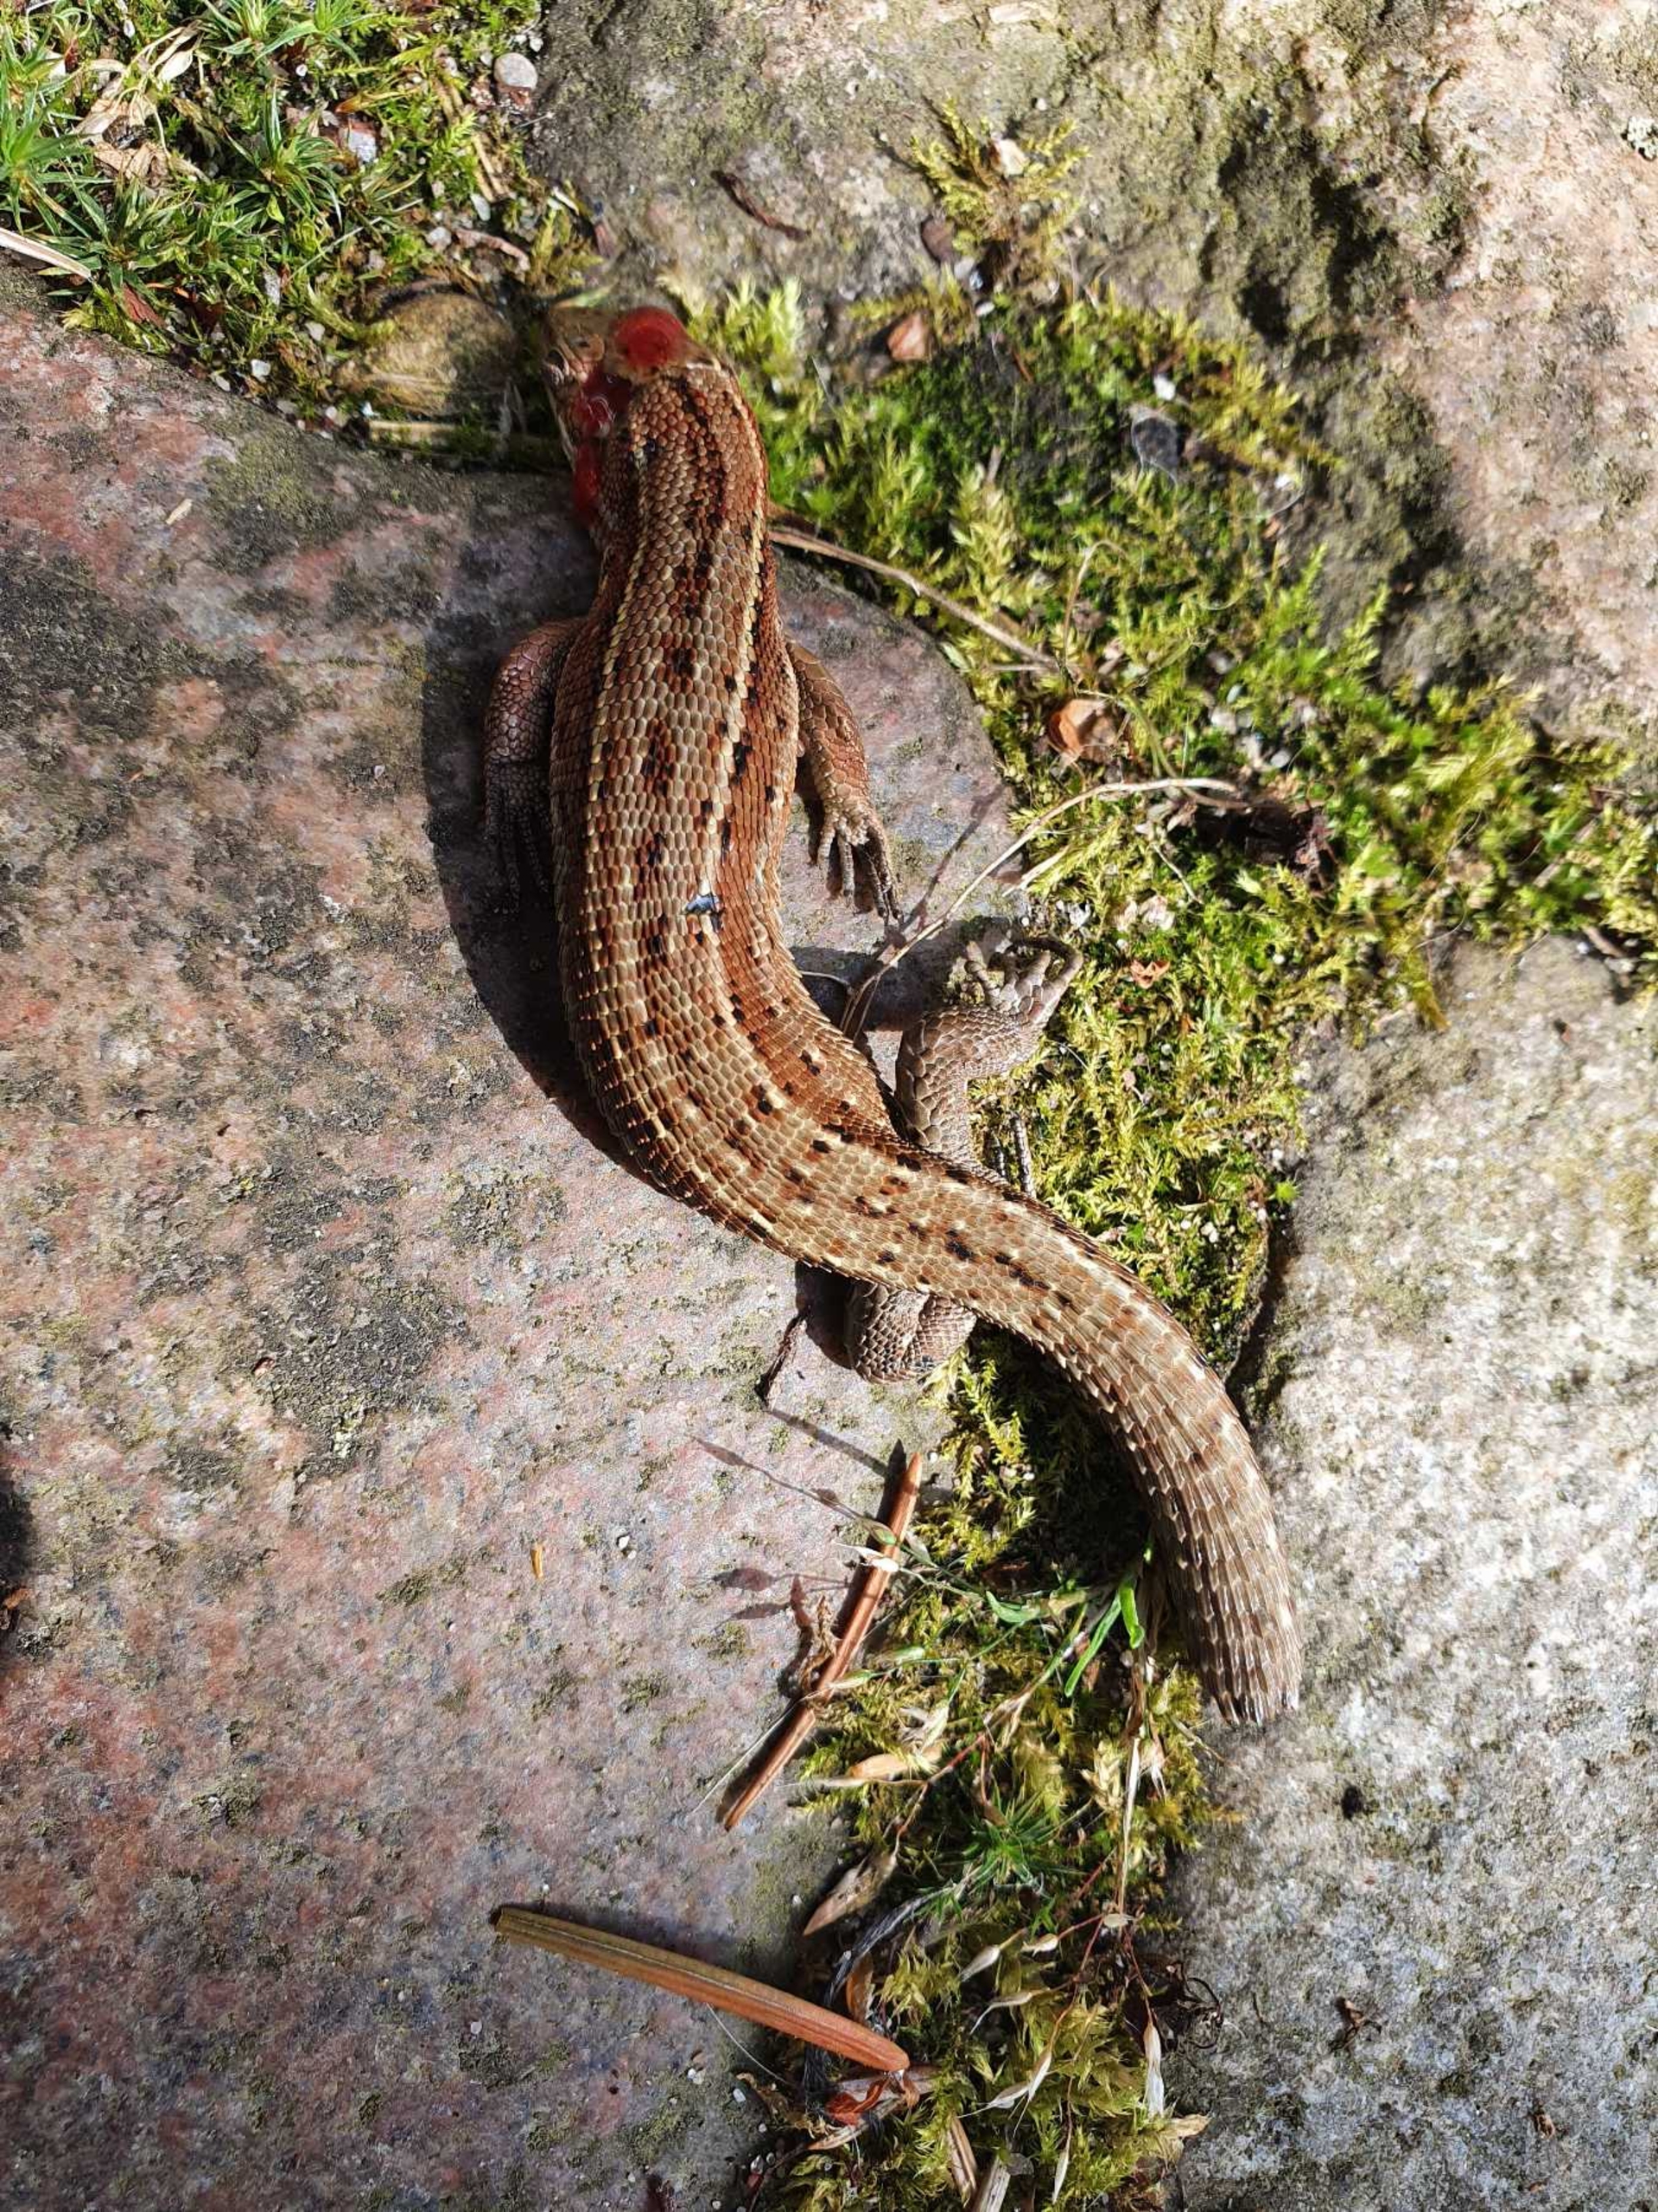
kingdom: Animalia
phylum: Chordata
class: Squamata
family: Lacertidae
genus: Zootoca
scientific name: Zootoca vivipara
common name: Skovfirben
